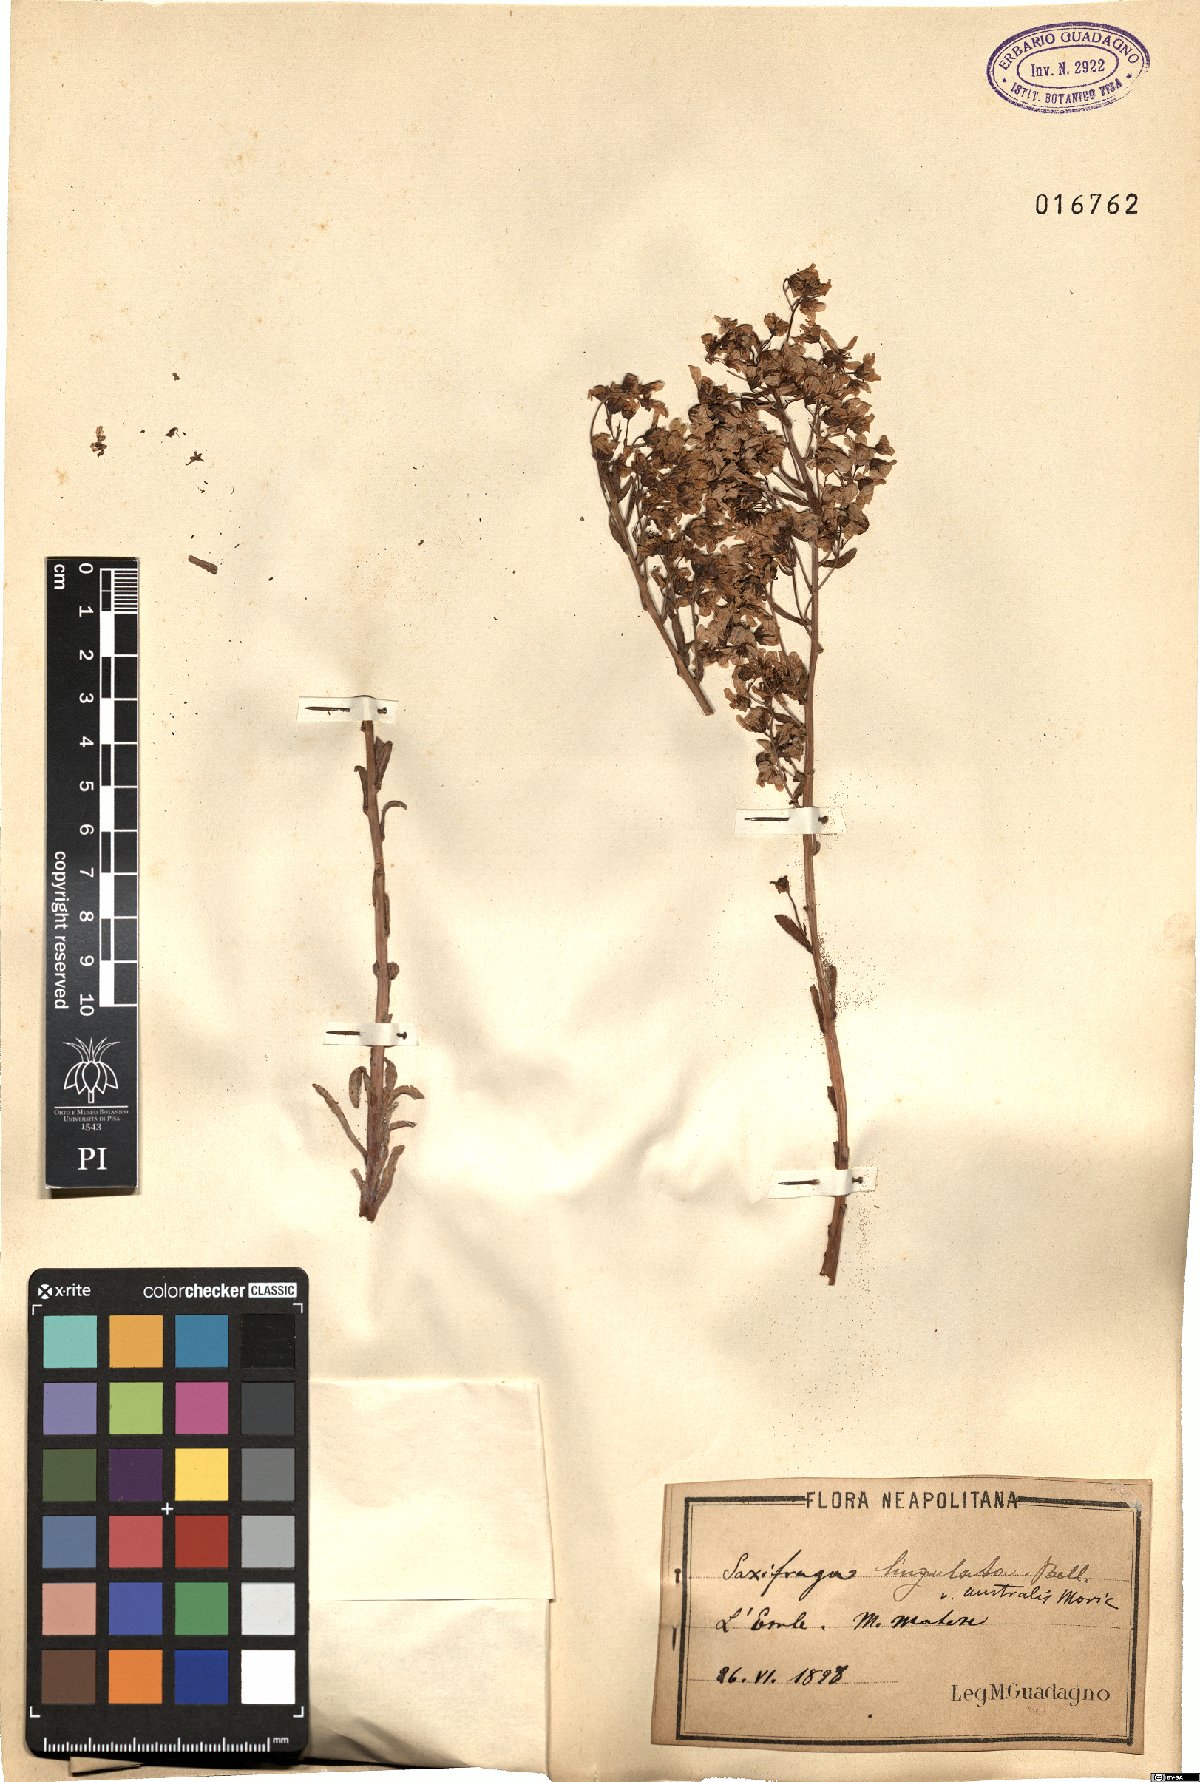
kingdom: Plantae
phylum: Tracheophyta
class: Magnoliopsida
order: Saxifragales
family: Saxifragaceae
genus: Saxifraga
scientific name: Saxifraga callosa
